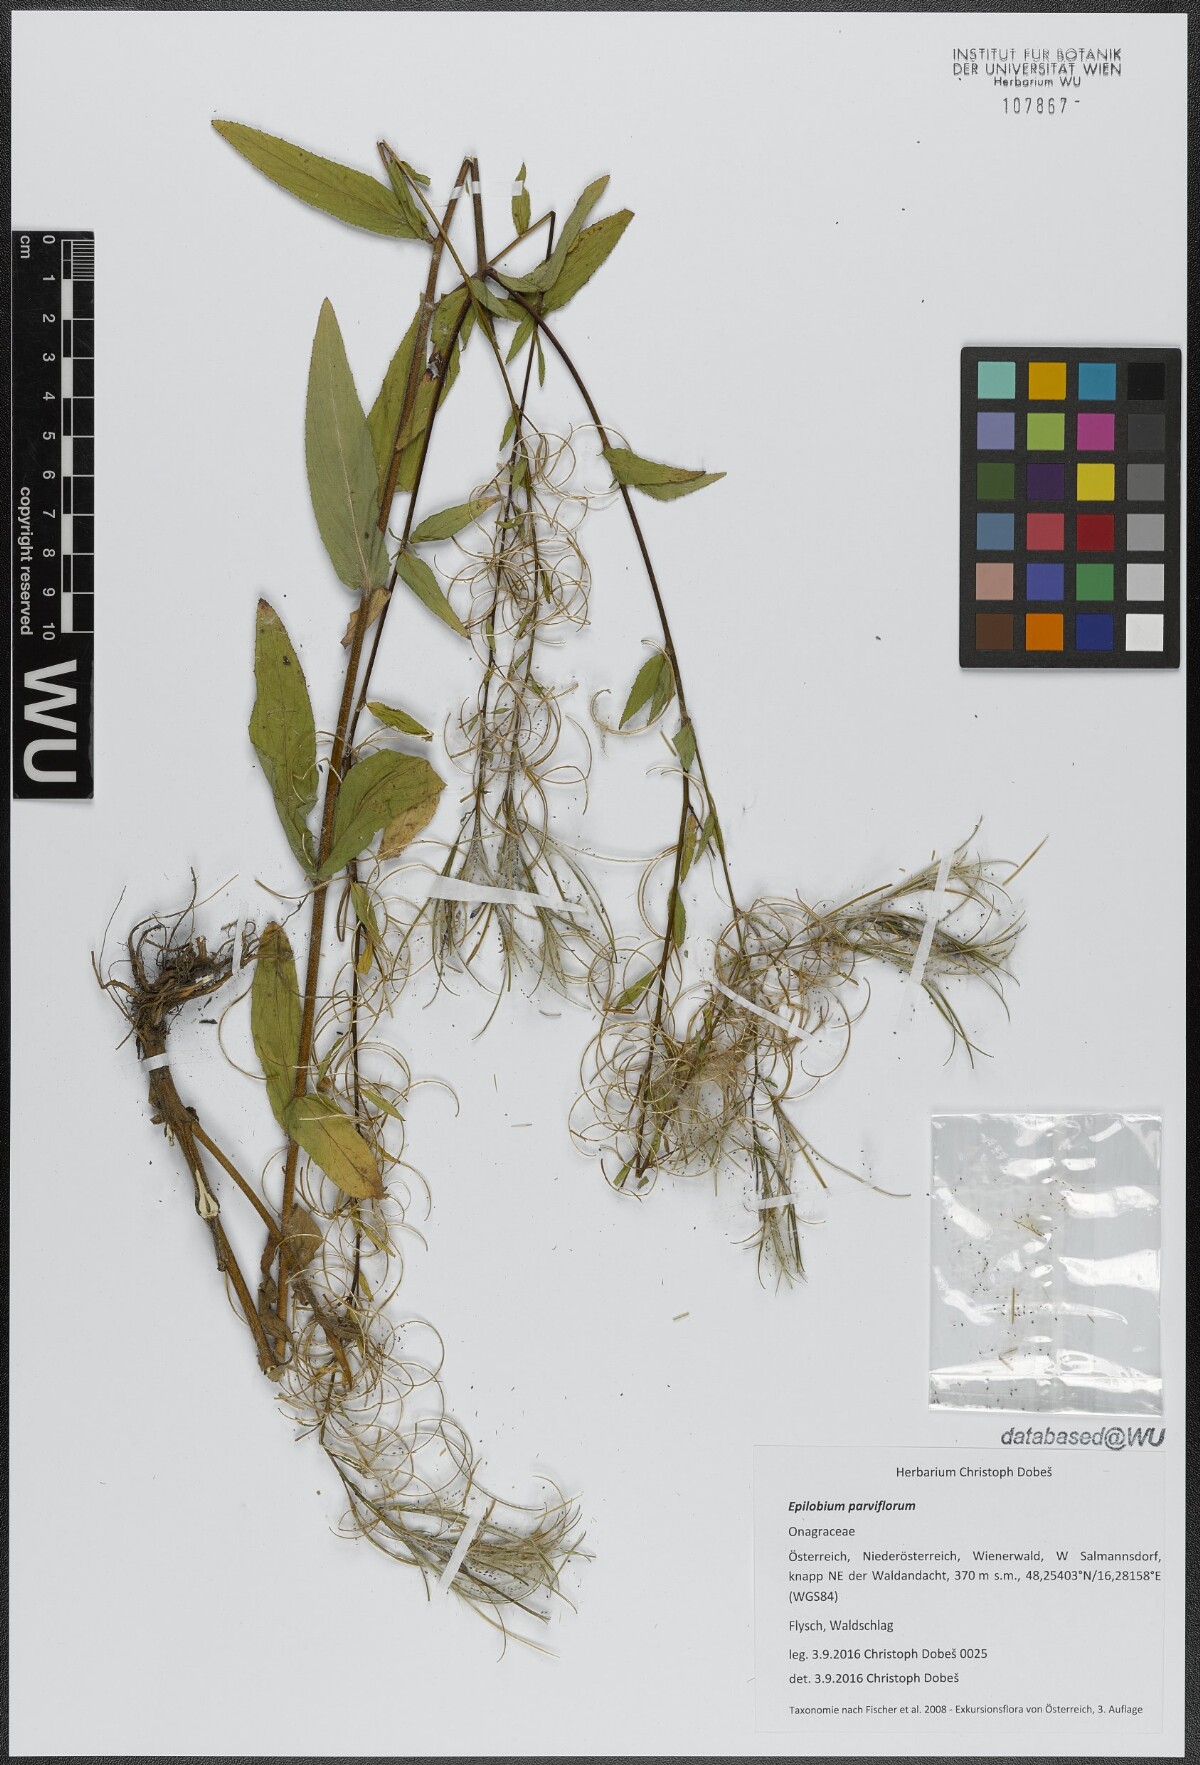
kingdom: Plantae
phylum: Tracheophyta
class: Magnoliopsida
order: Myrtales
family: Onagraceae
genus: Epilobium
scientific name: Epilobium parviflorum
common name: Hoary willowherb
